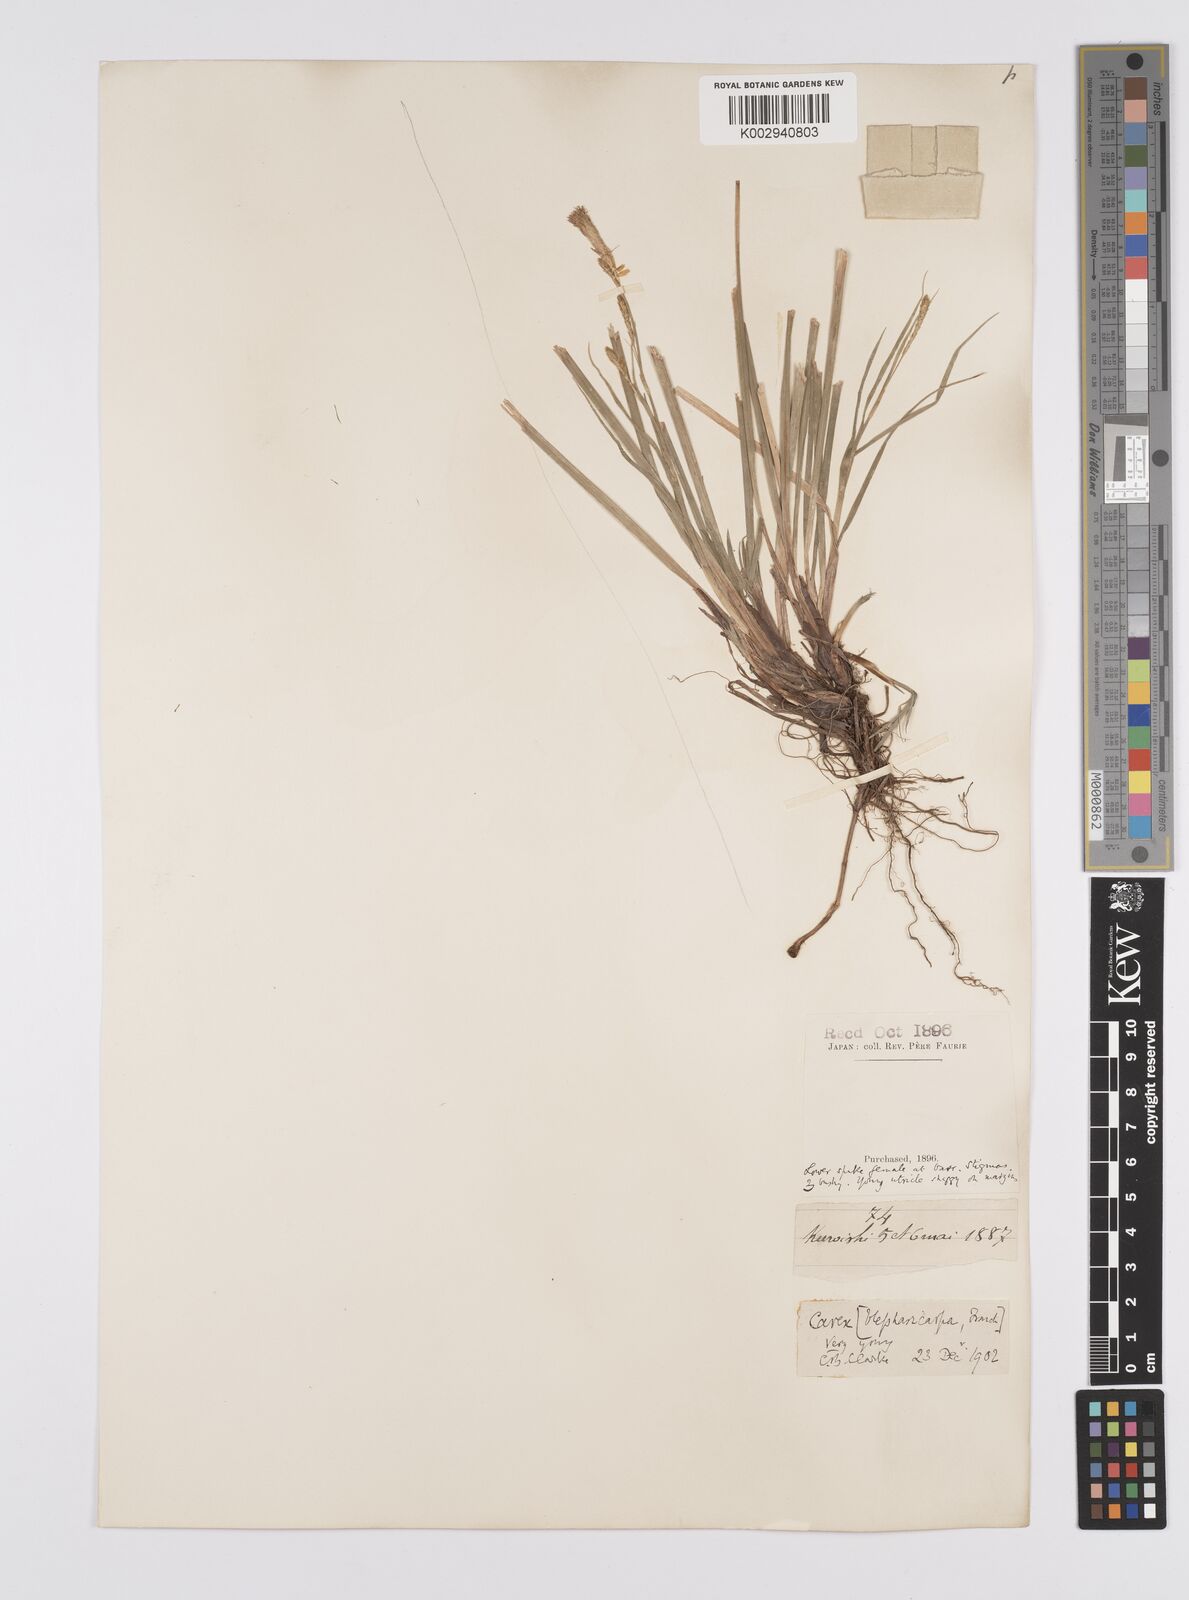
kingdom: Plantae
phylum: Tracheophyta
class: Liliopsida
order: Poales
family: Cyperaceae
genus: Carex
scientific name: Carex blepharicarpa
